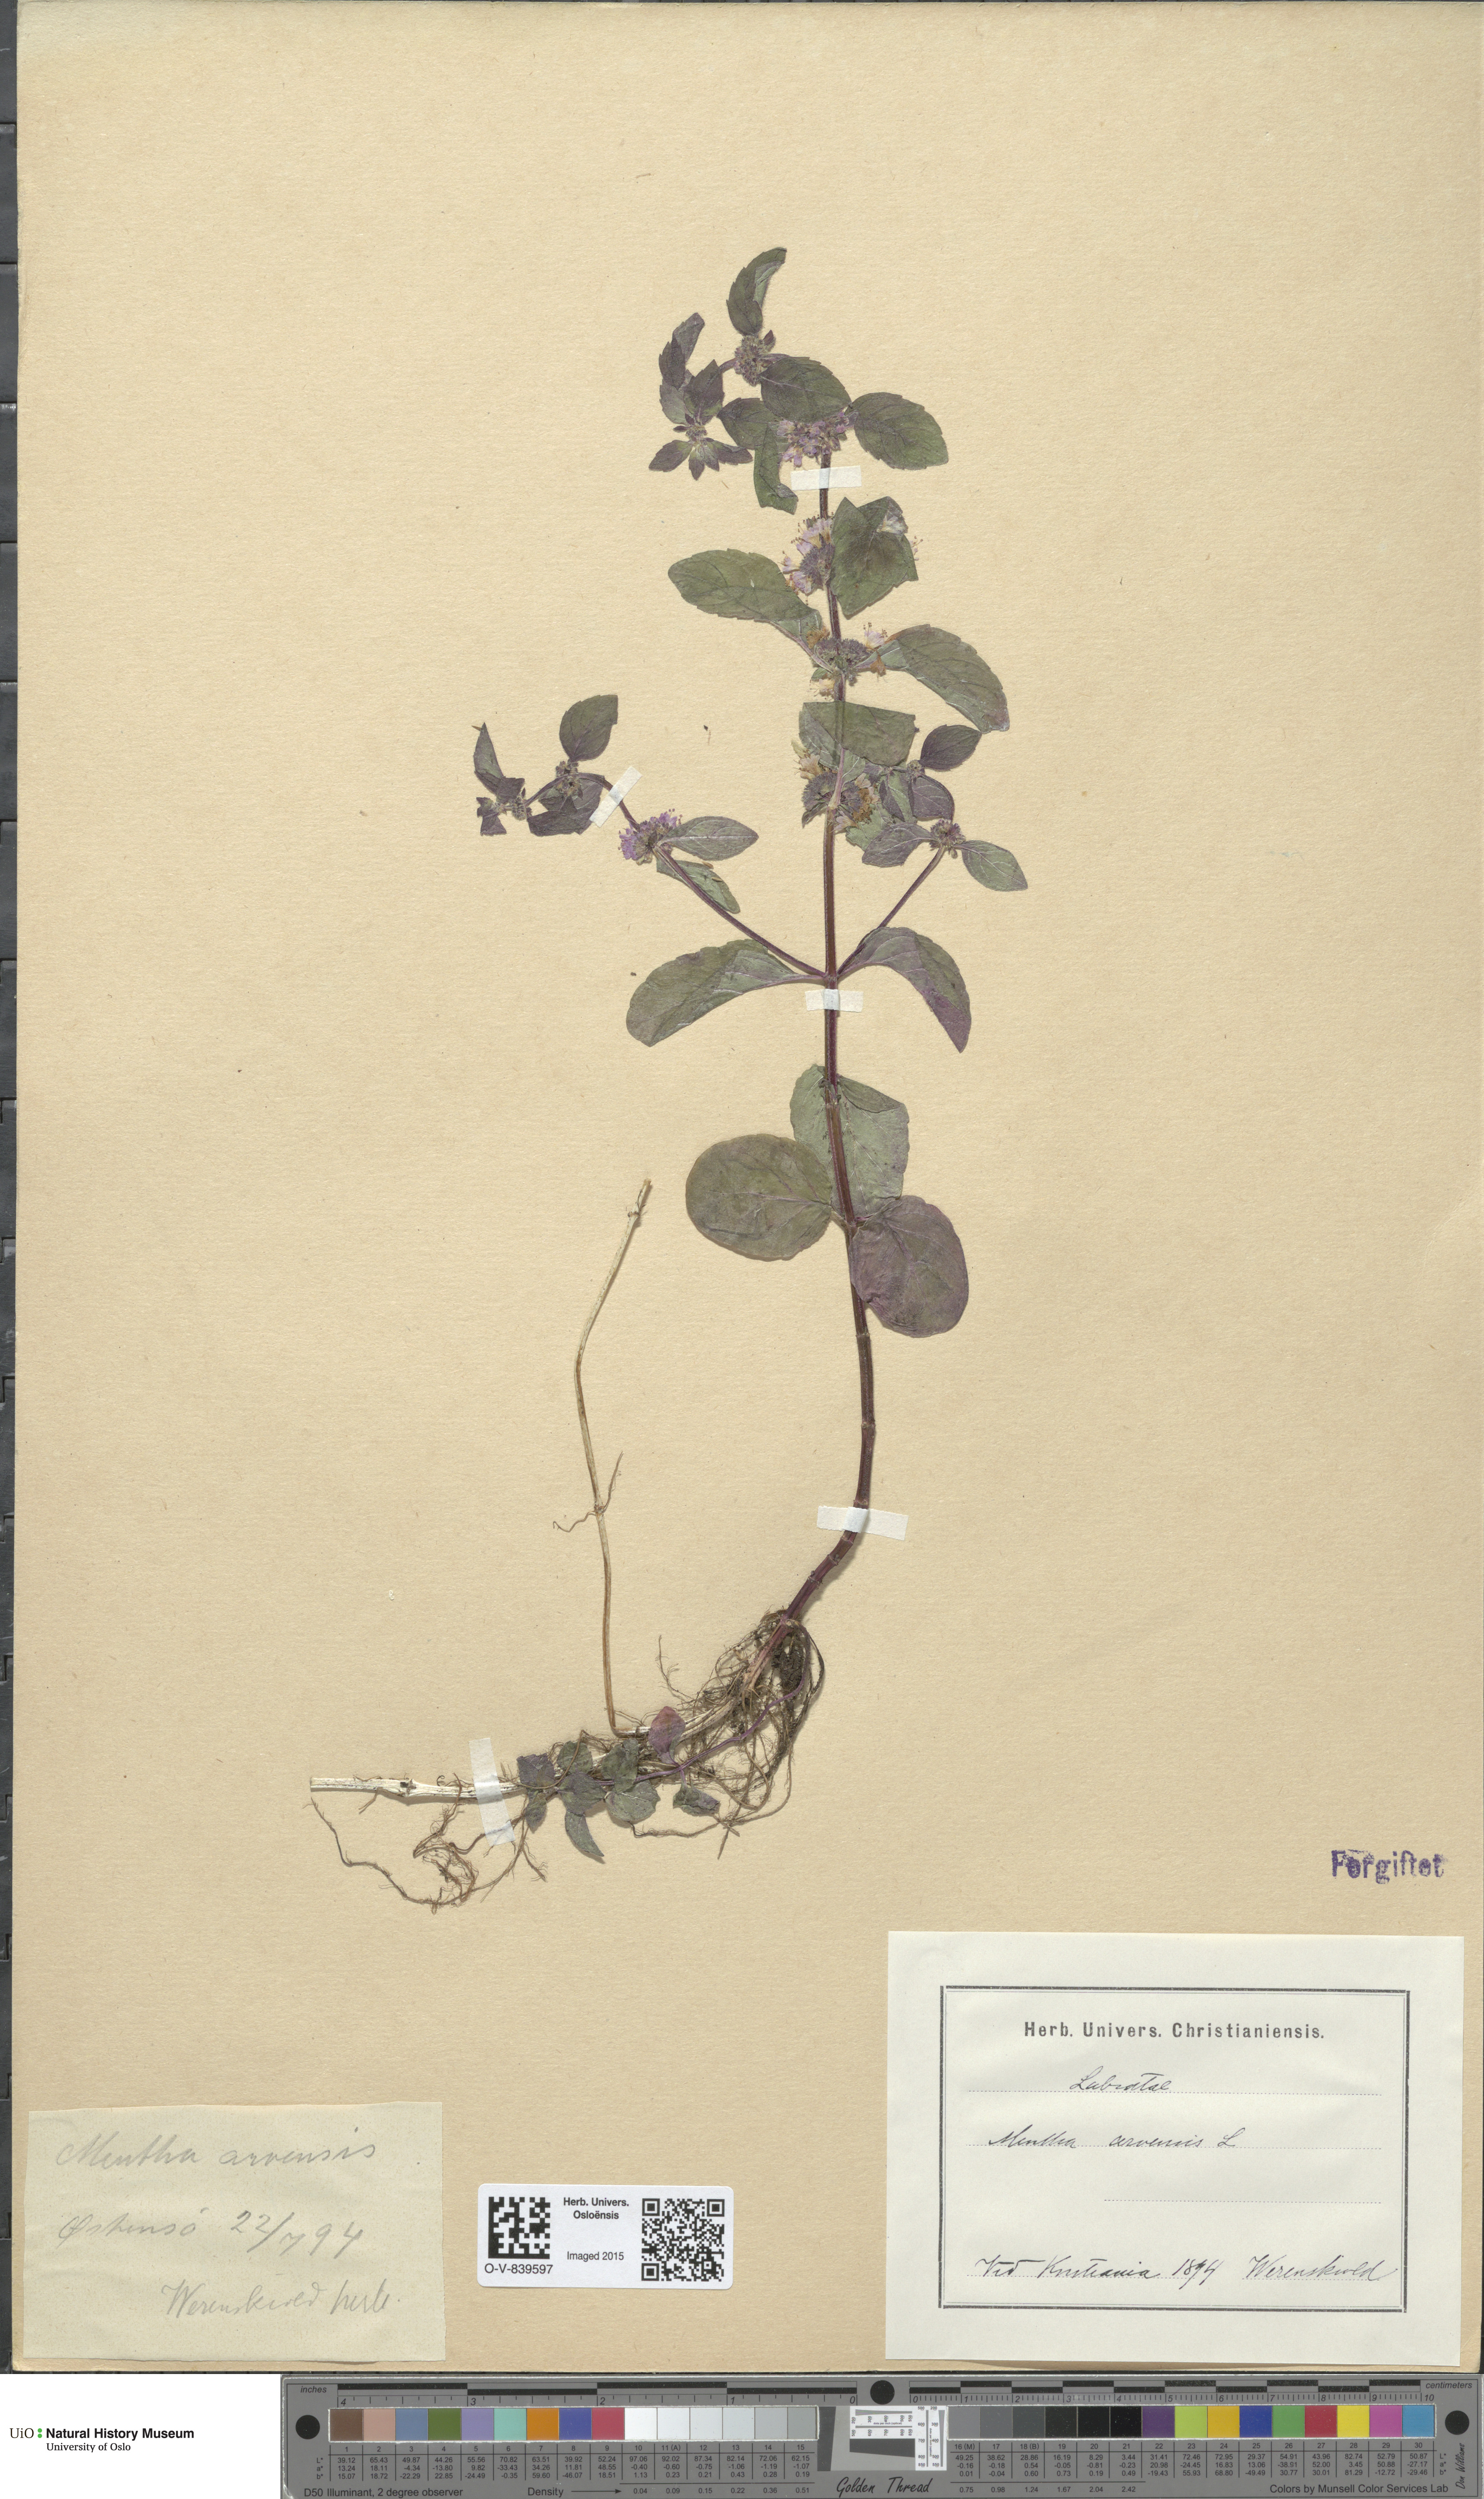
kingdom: Plantae
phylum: Tracheophyta
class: Magnoliopsida
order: Lamiales
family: Lamiaceae
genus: Mentha
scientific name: Mentha arvensis
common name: Corn mint
